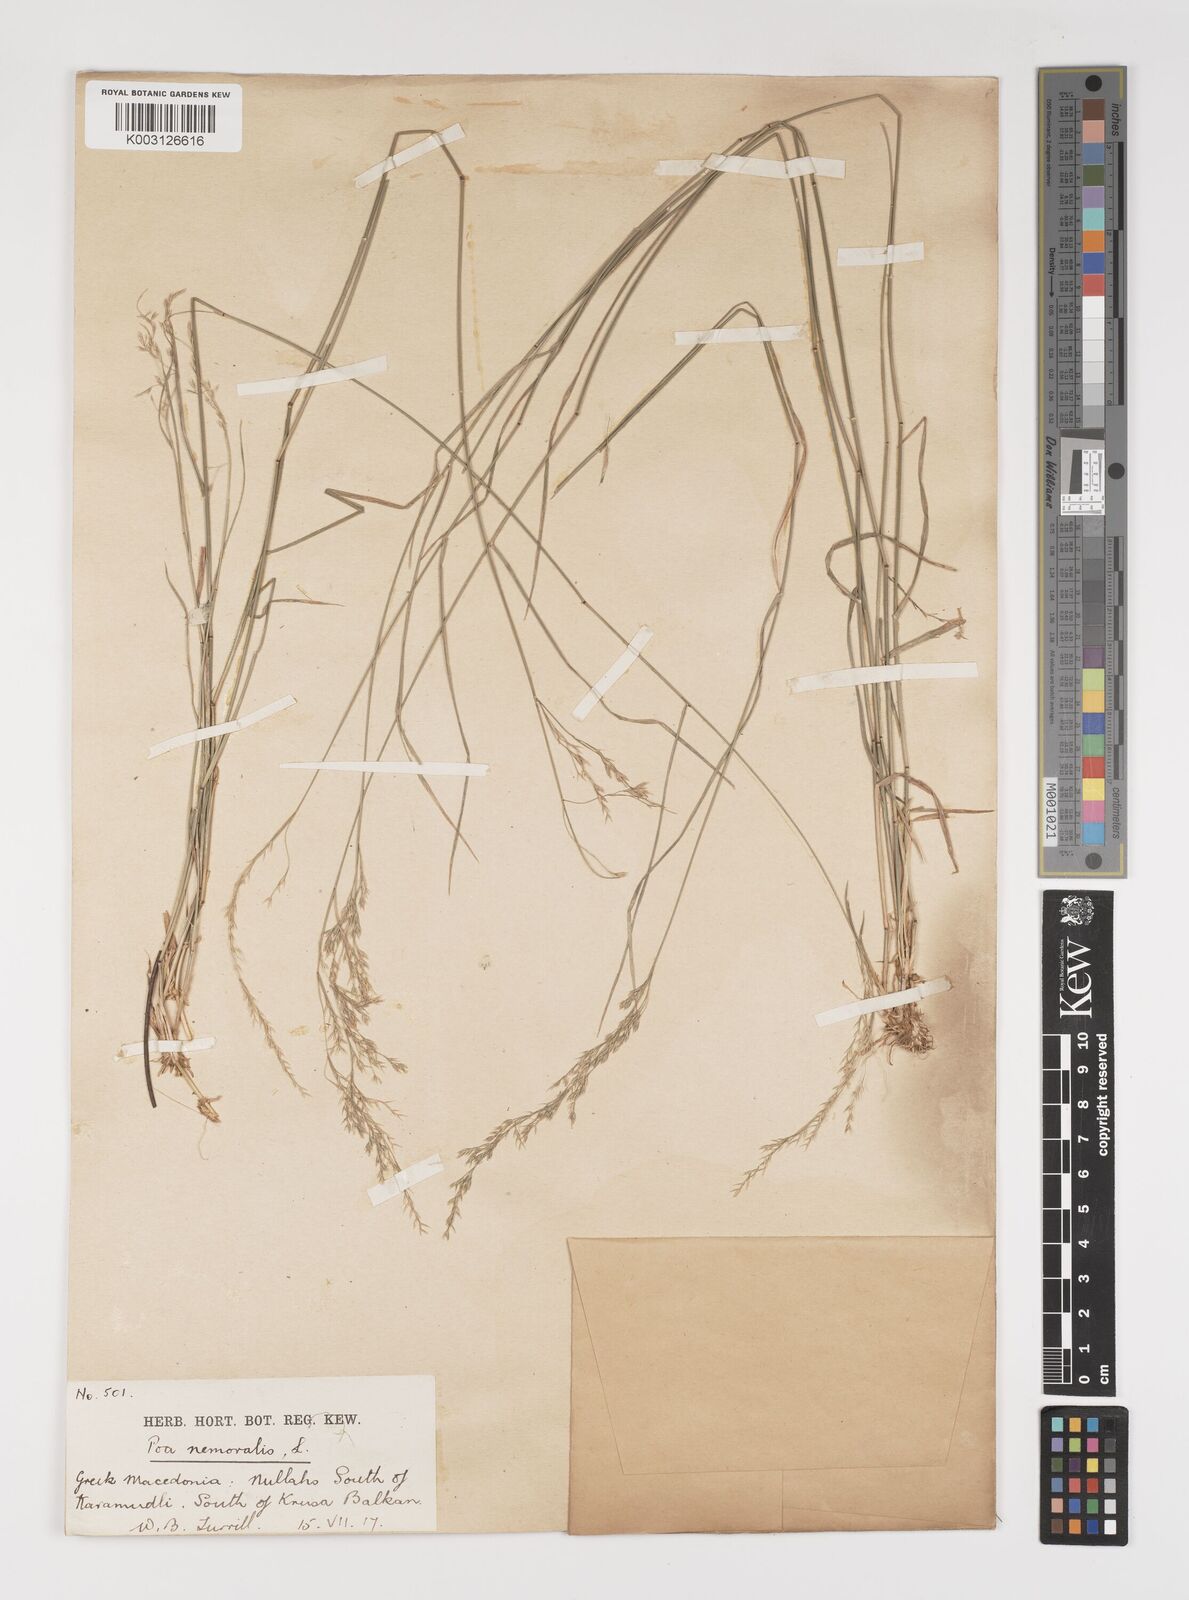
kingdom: Plantae
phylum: Tracheophyta
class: Liliopsida
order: Poales
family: Poaceae
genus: Poa
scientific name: Poa nemoralis
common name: Wood bluegrass
